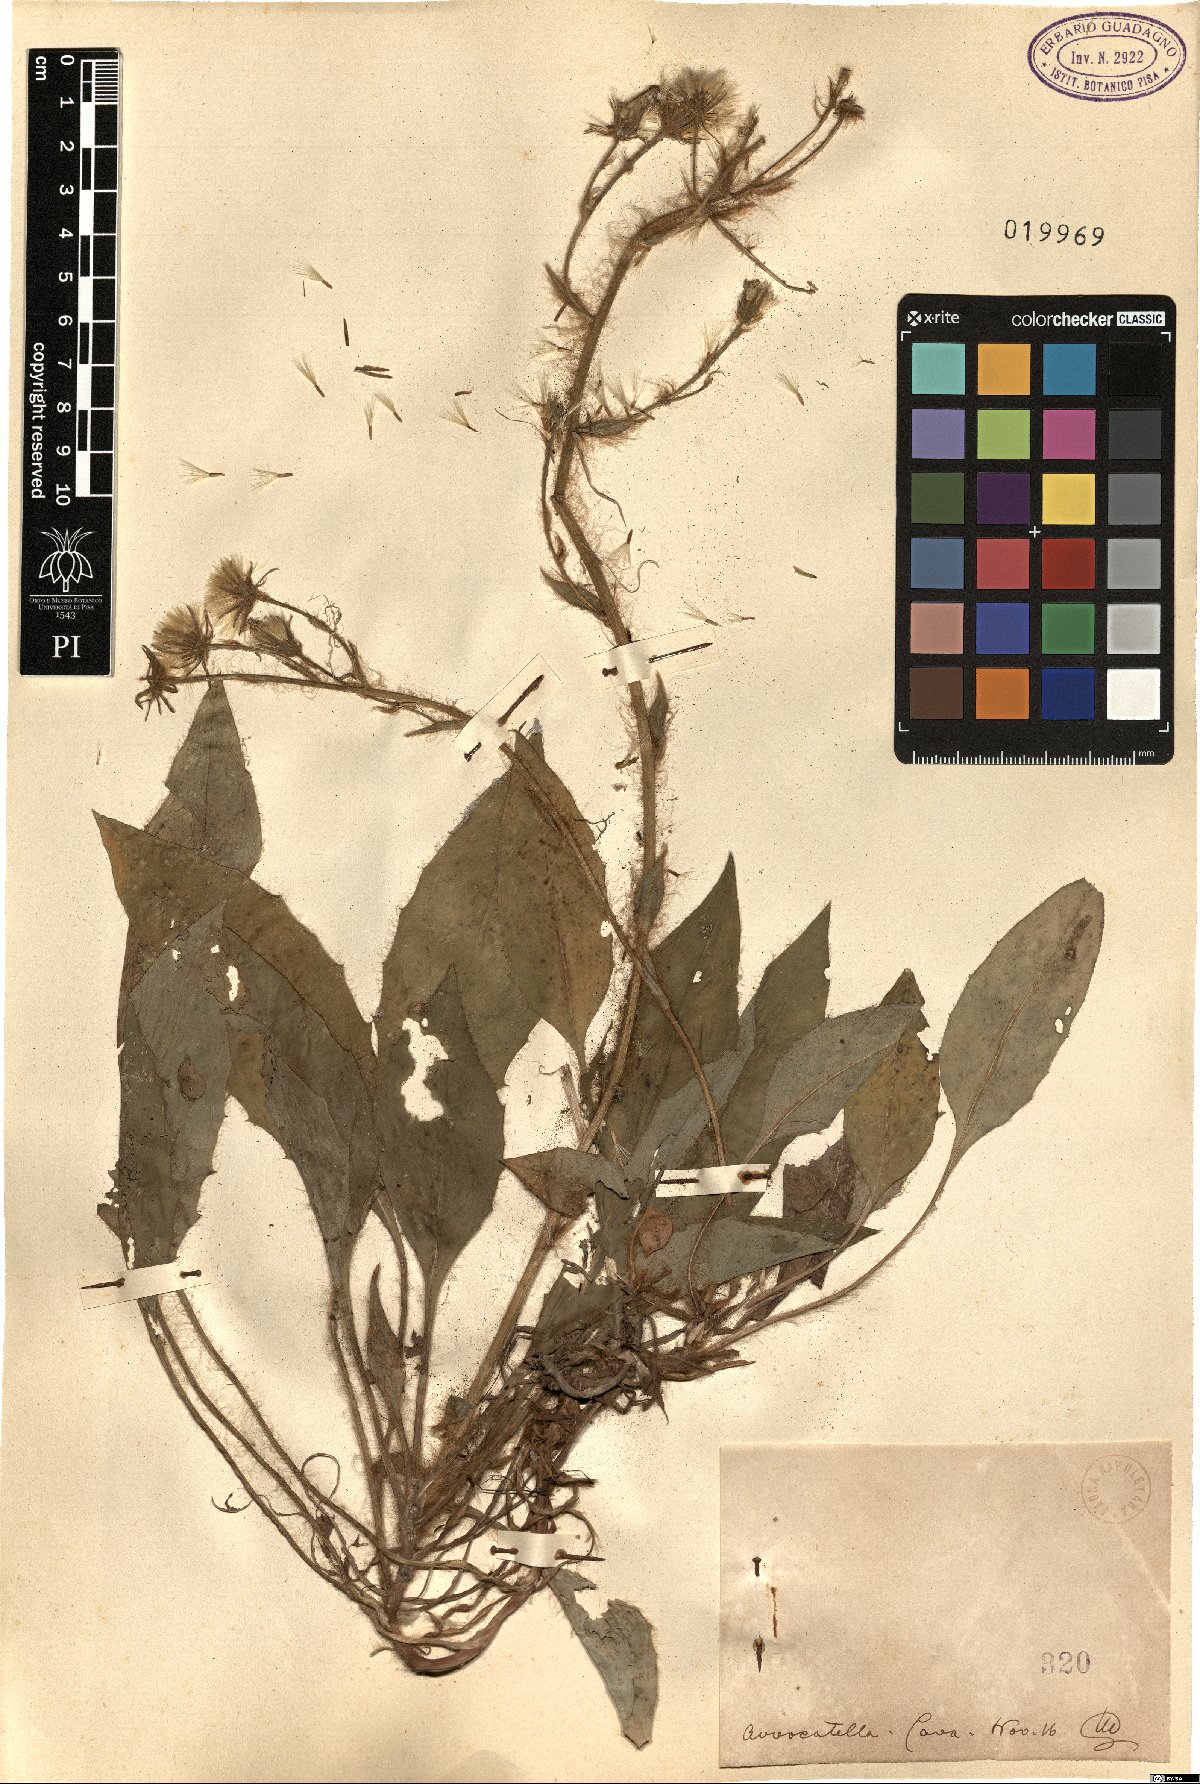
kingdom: Plantae
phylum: Tracheophyta
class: Magnoliopsida
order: Asterales
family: Asteraceae
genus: Hieracium
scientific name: Hieracium
